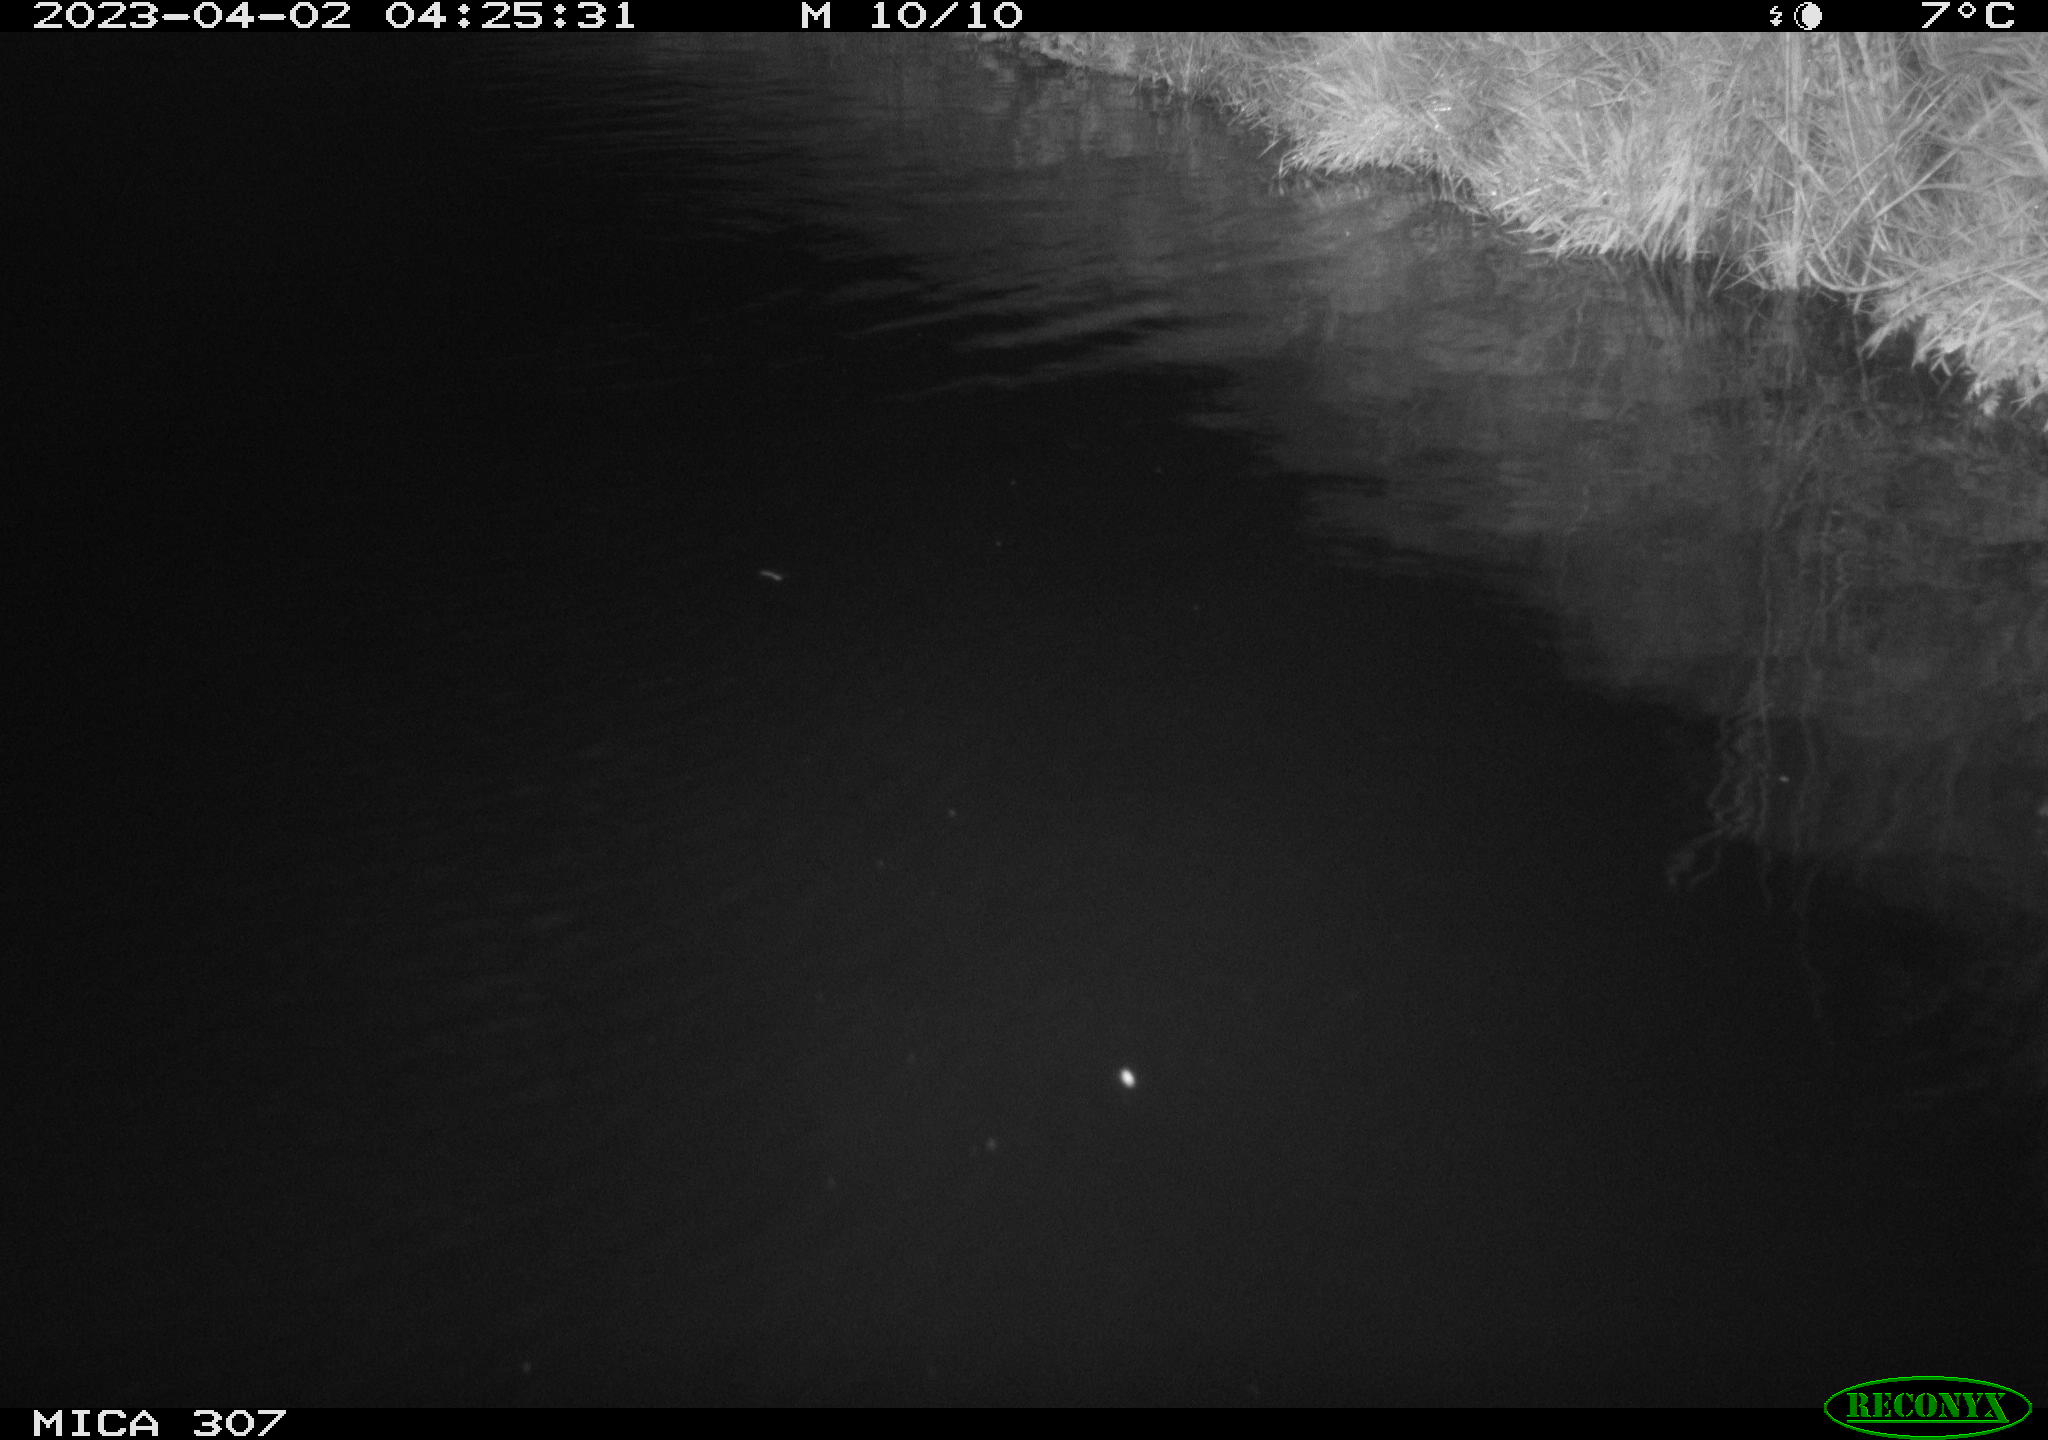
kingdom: Animalia
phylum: Chordata
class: Aves
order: Anseriformes
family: Anatidae
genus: Anas
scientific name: Anas
